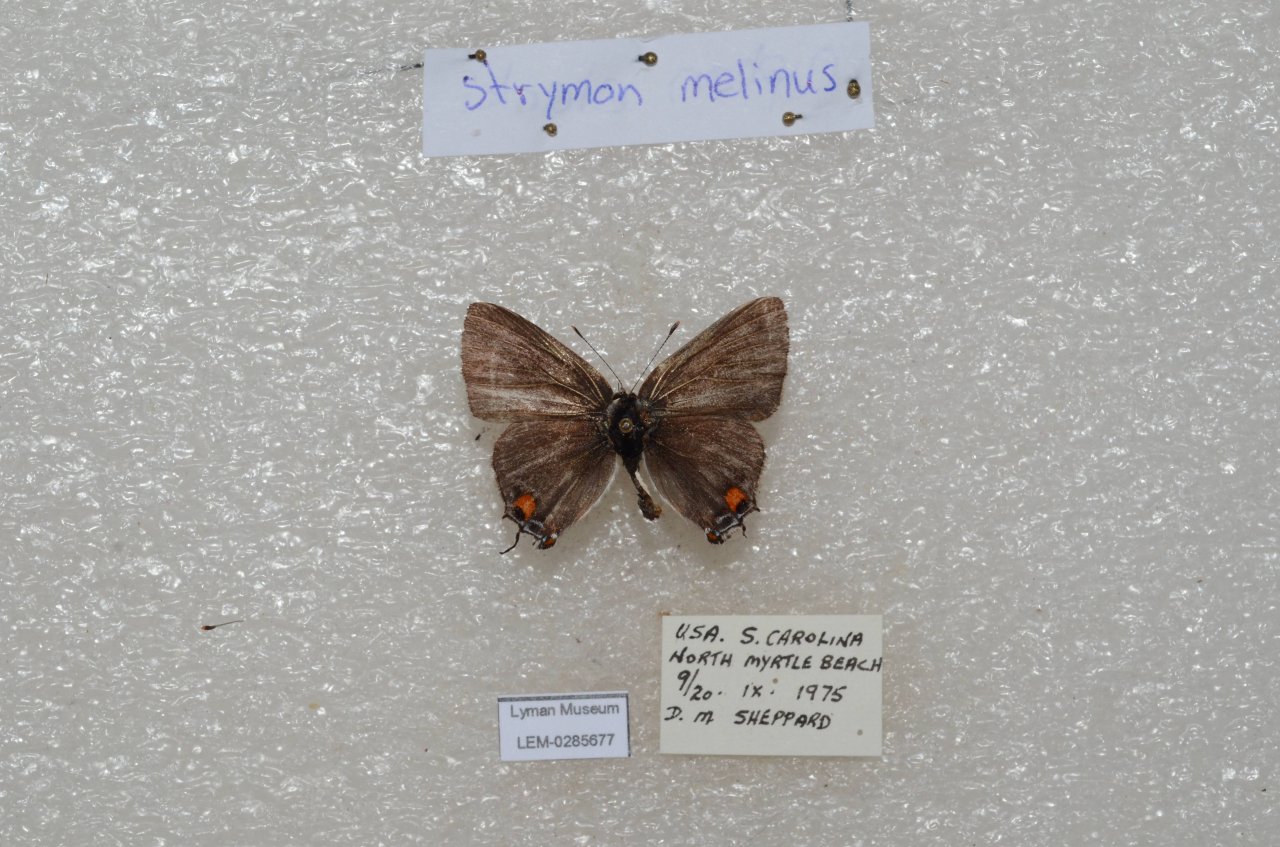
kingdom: Animalia
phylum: Arthropoda
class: Insecta
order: Lepidoptera
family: Lycaenidae
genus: Strymon
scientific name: Strymon melinus
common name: Gray Hairstreak
